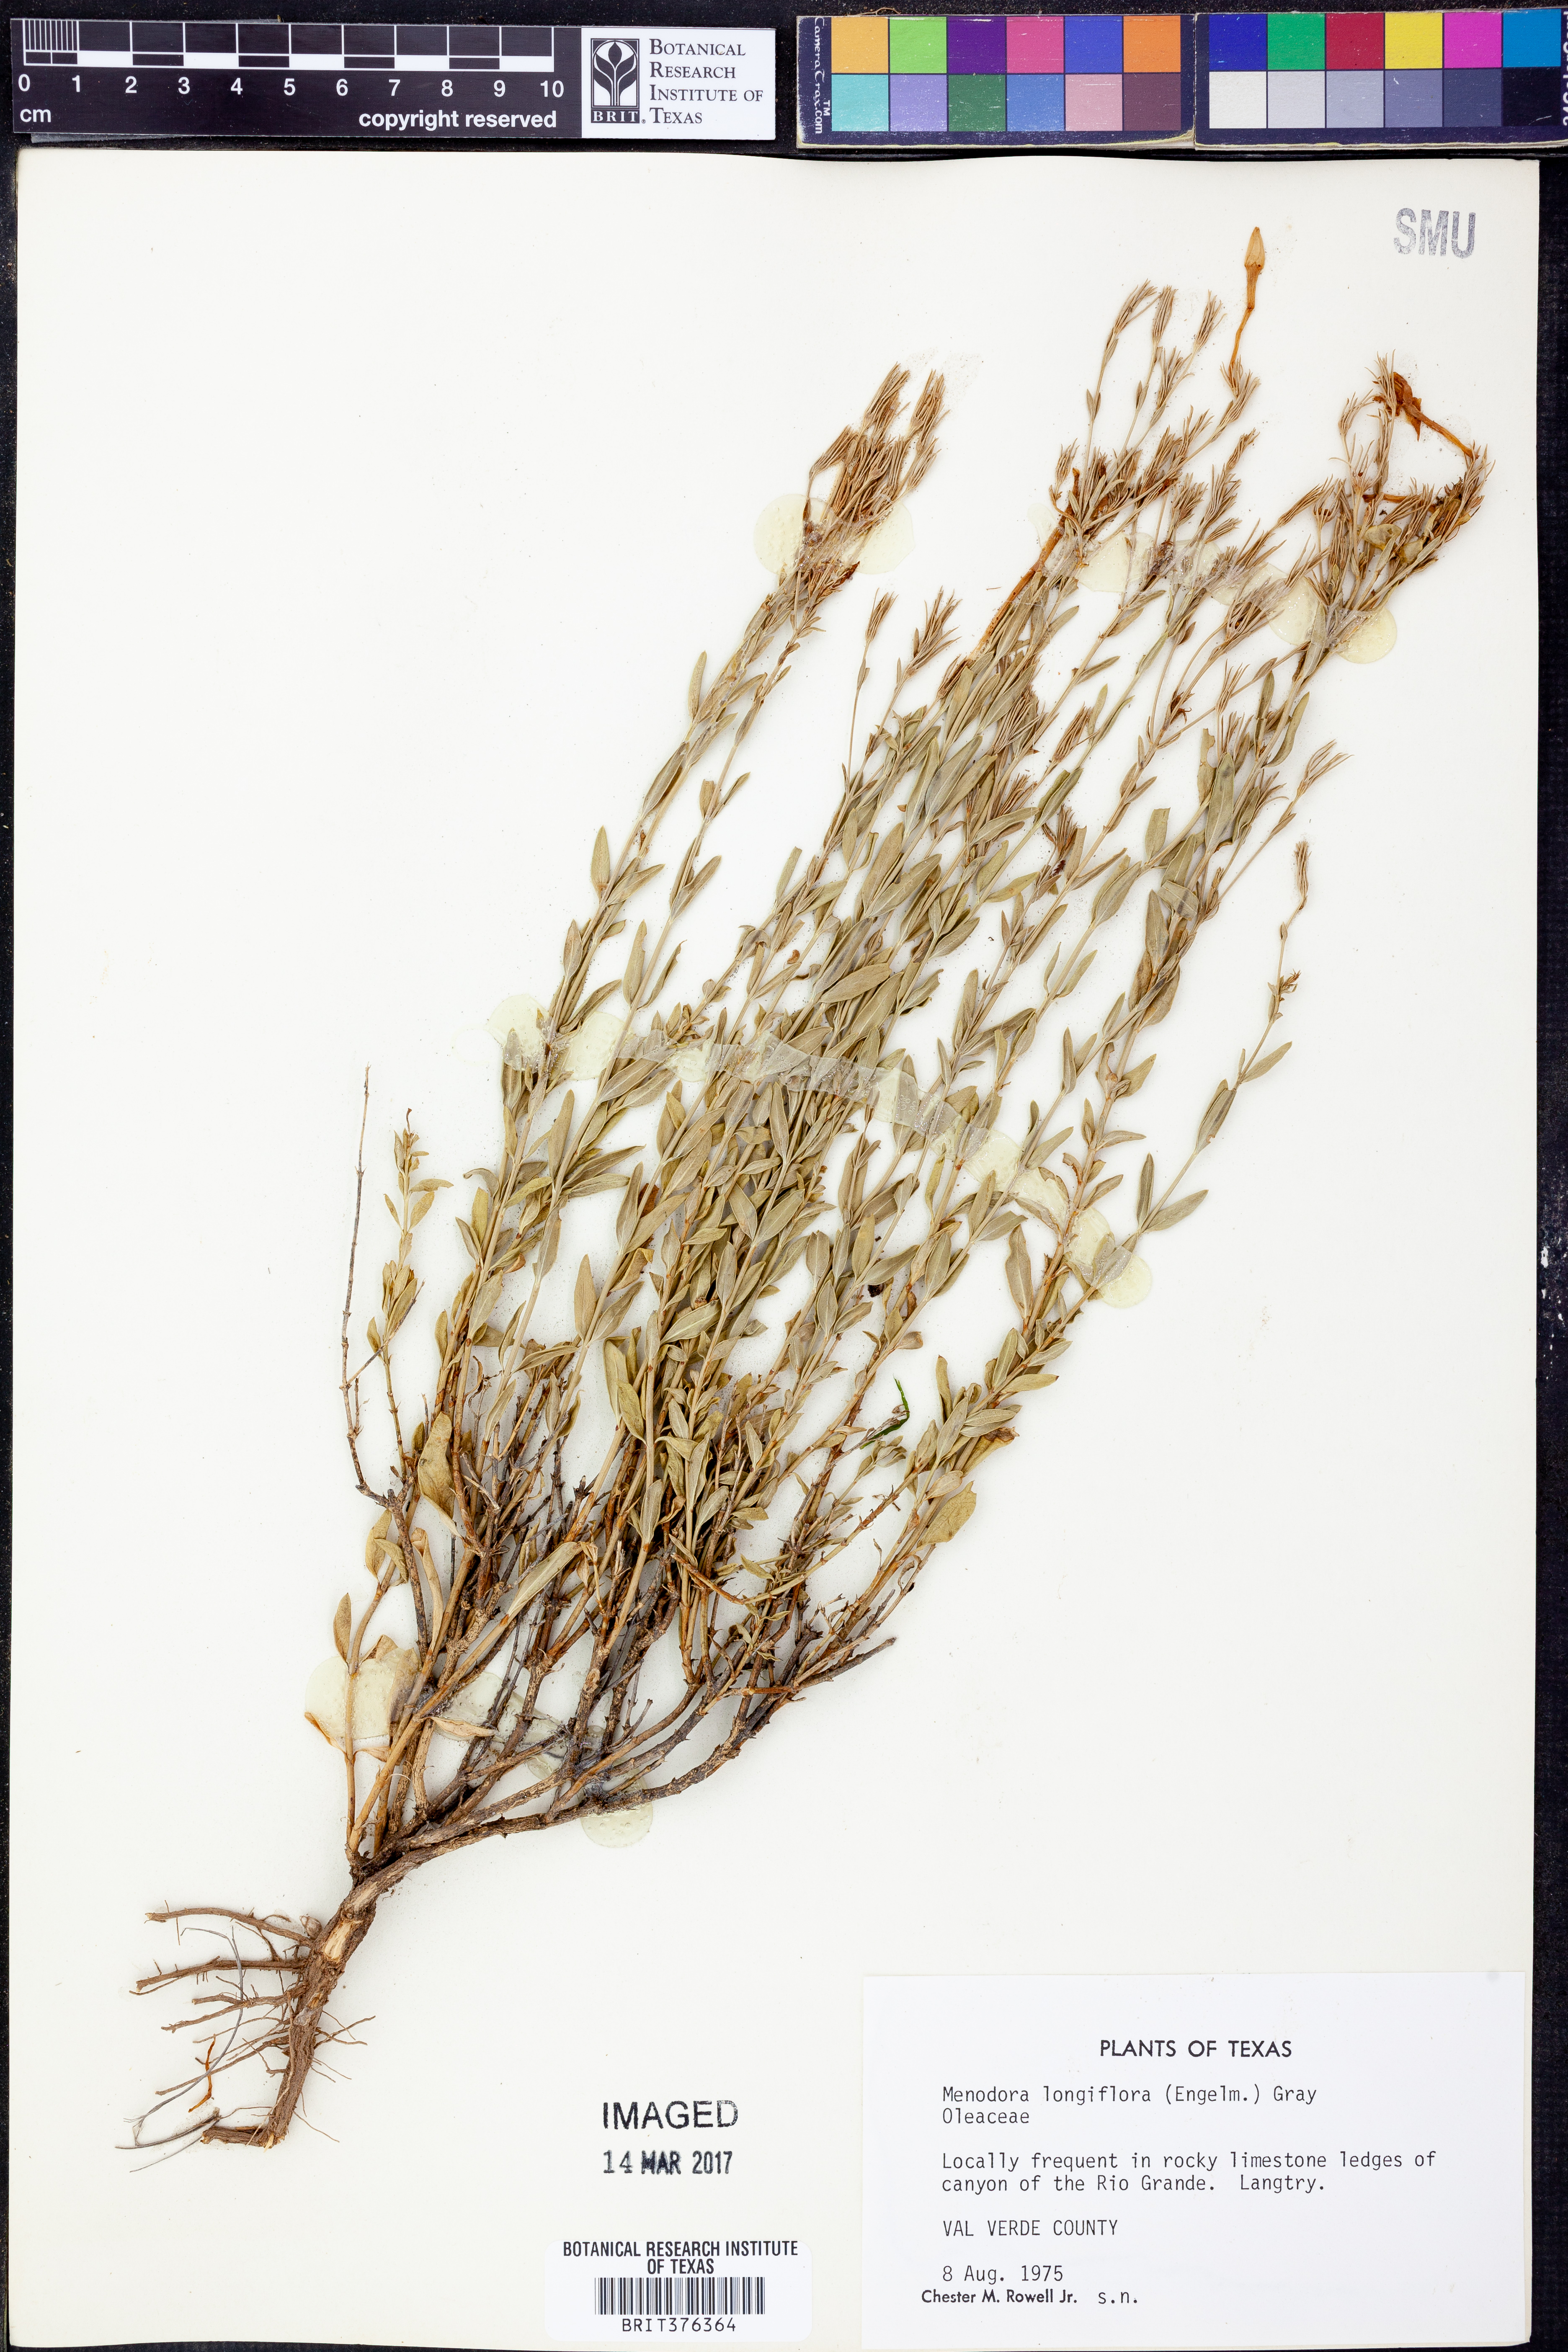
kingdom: Plantae
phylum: Tracheophyta
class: Magnoliopsida
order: Lamiales
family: Oleaceae
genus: Menodora
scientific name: Menodora longiflora
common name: Showy menodora
